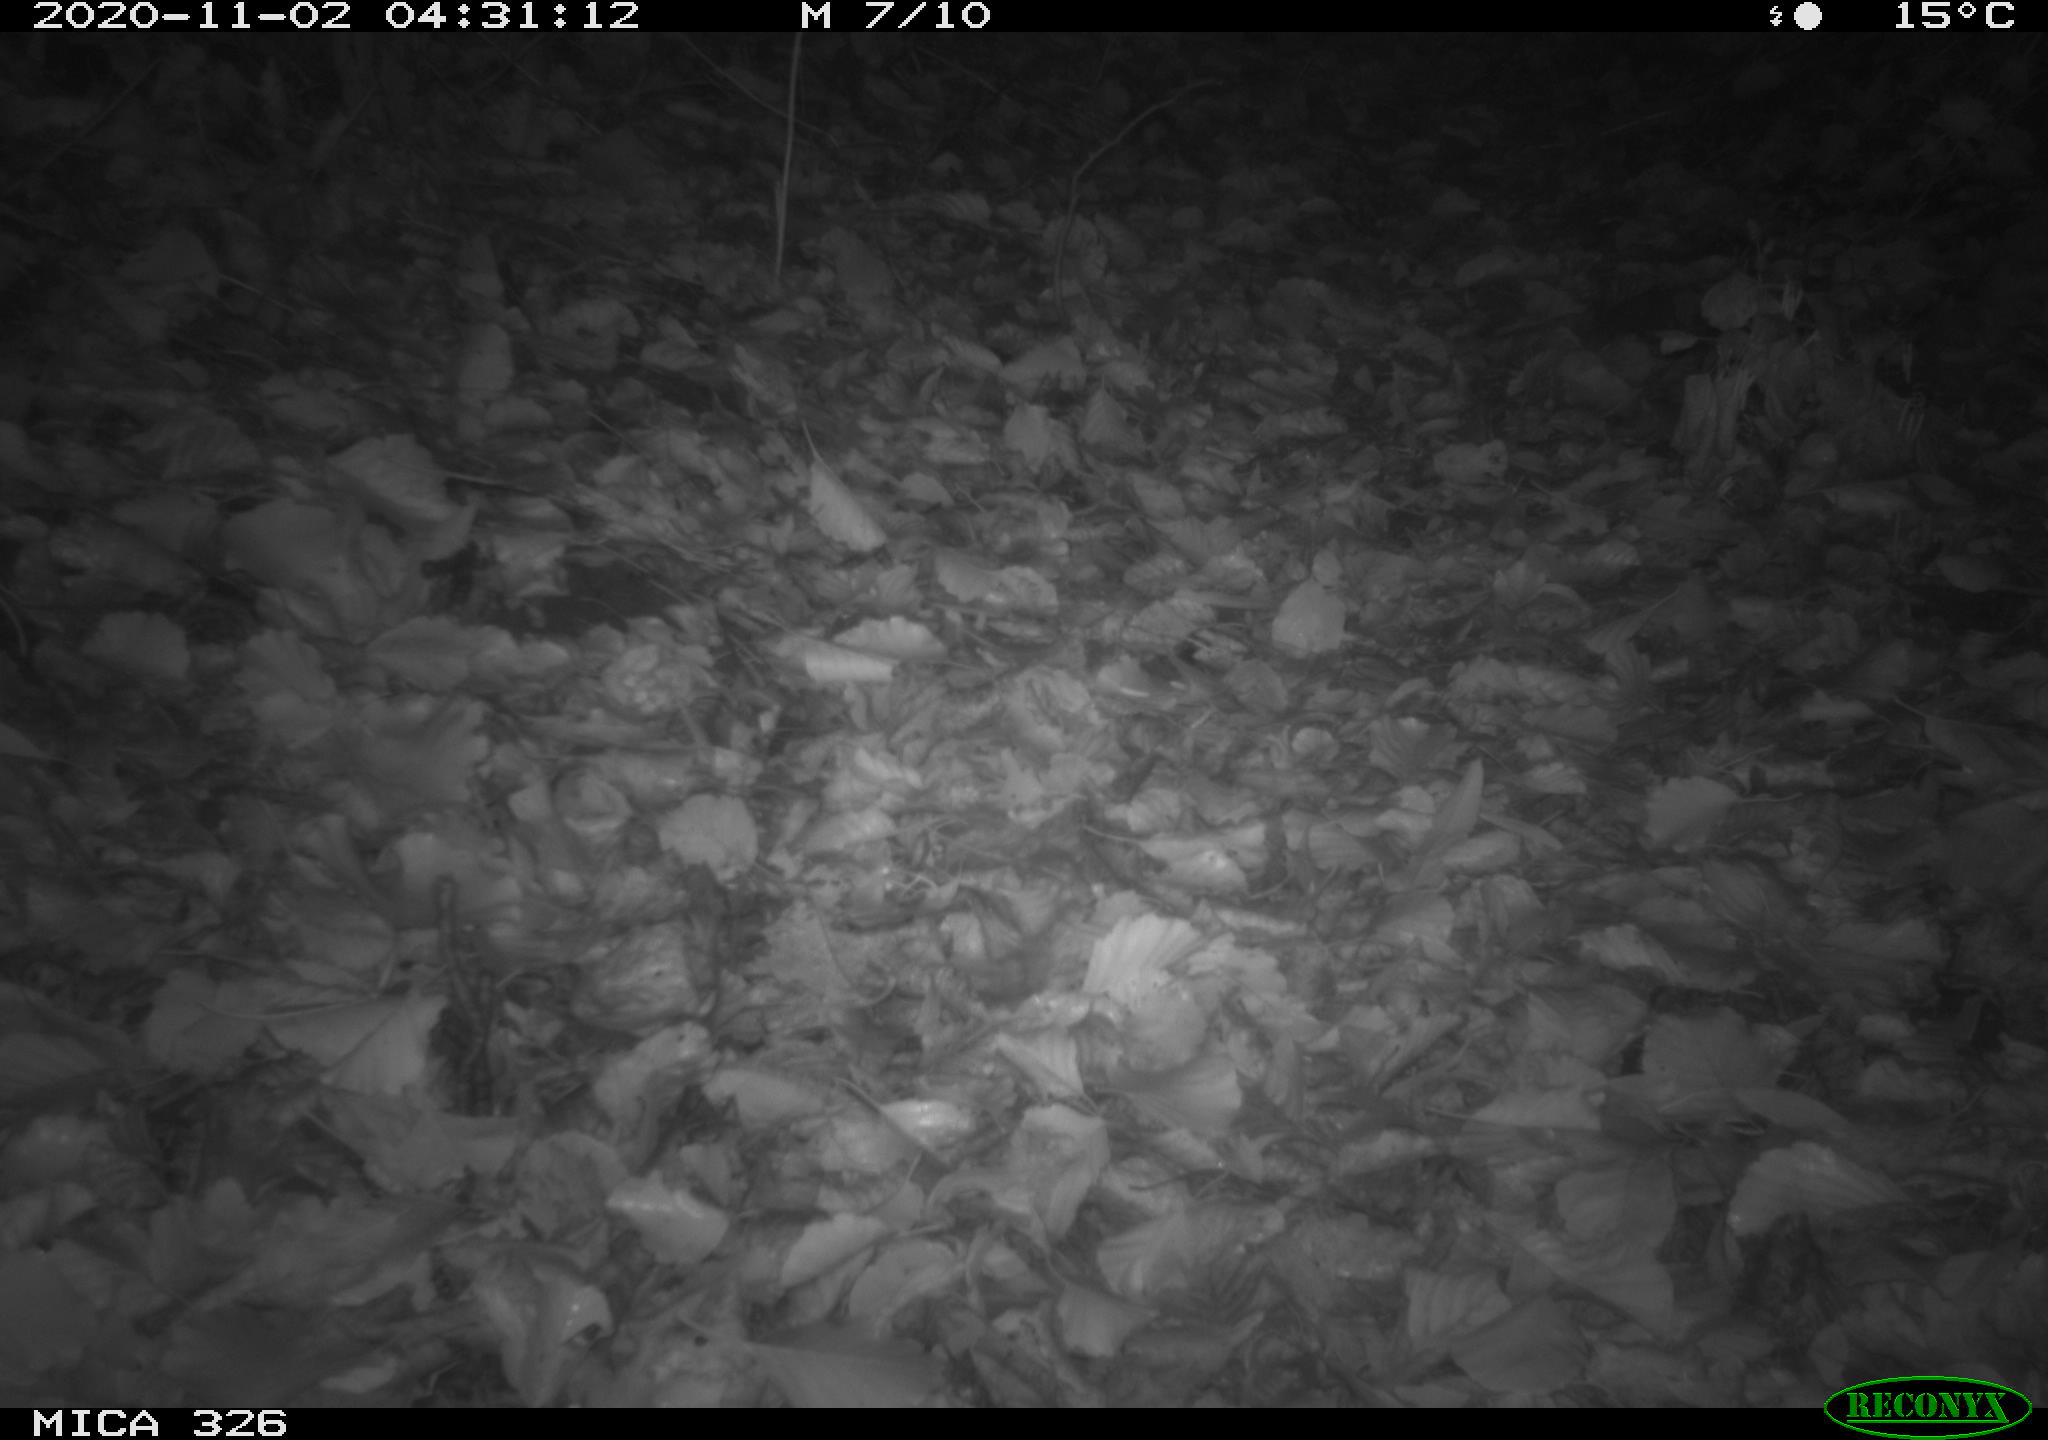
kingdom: Animalia
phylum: Chordata
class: Mammalia
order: Carnivora
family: Mustelidae
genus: Lutra
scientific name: Lutra lutra
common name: European otter
